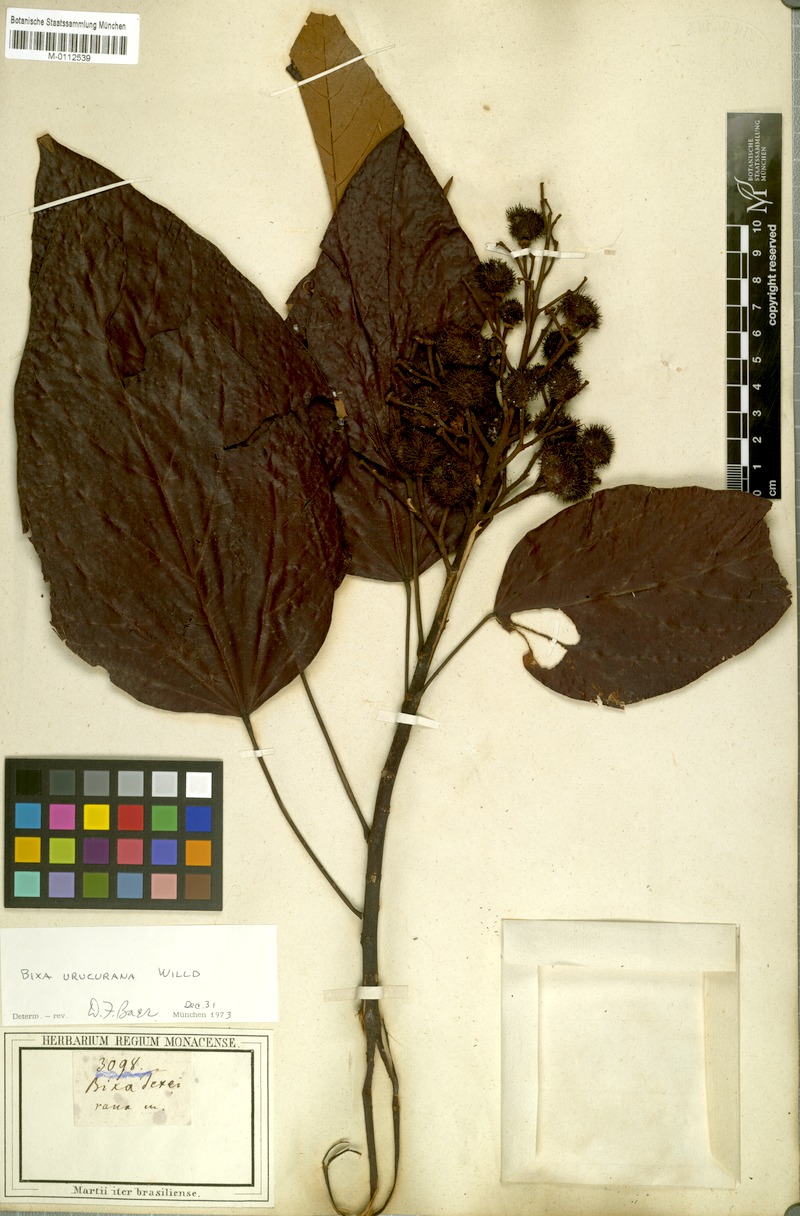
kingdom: Plantae
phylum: Tracheophyta
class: Magnoliopsida
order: Malvales
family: Bixaceae
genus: Bixa
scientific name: Bixa
